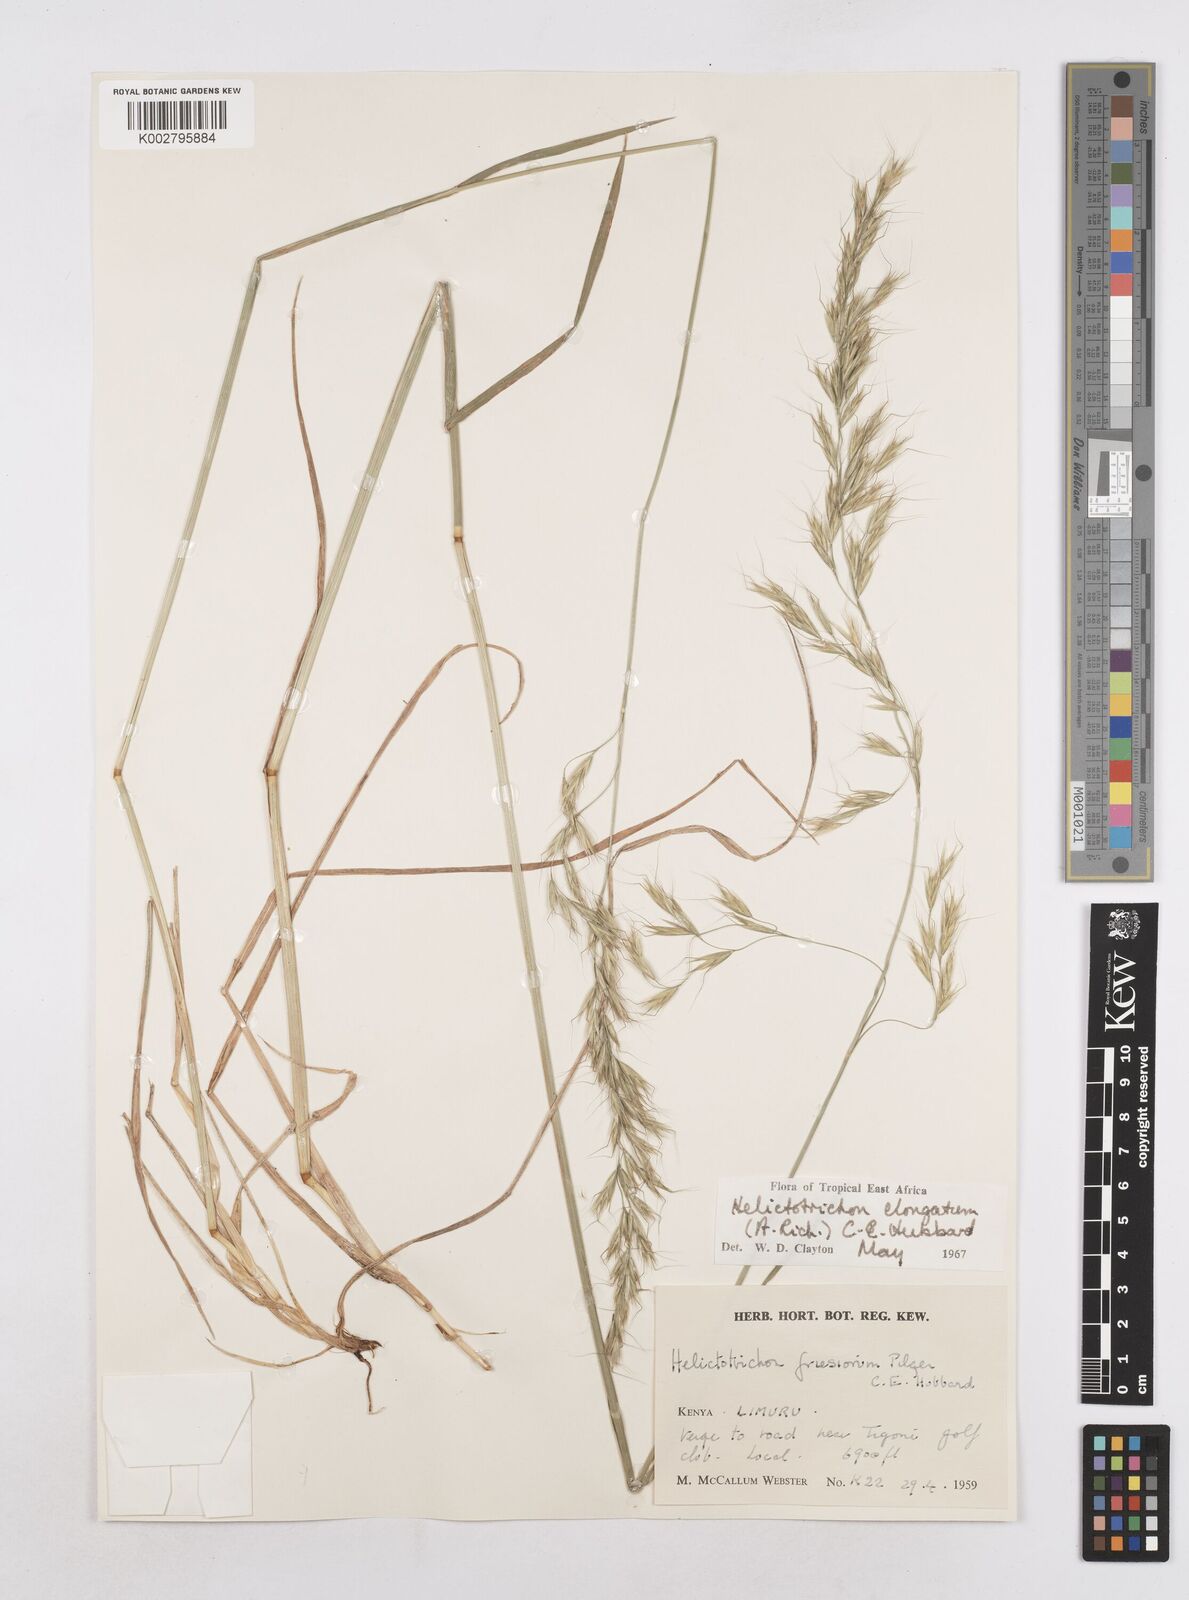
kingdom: Plantae
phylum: Tracheophyta
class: Liliopsida
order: Poales
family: Poaceae
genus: Trisetopsis
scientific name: Trisetopsis elongata
